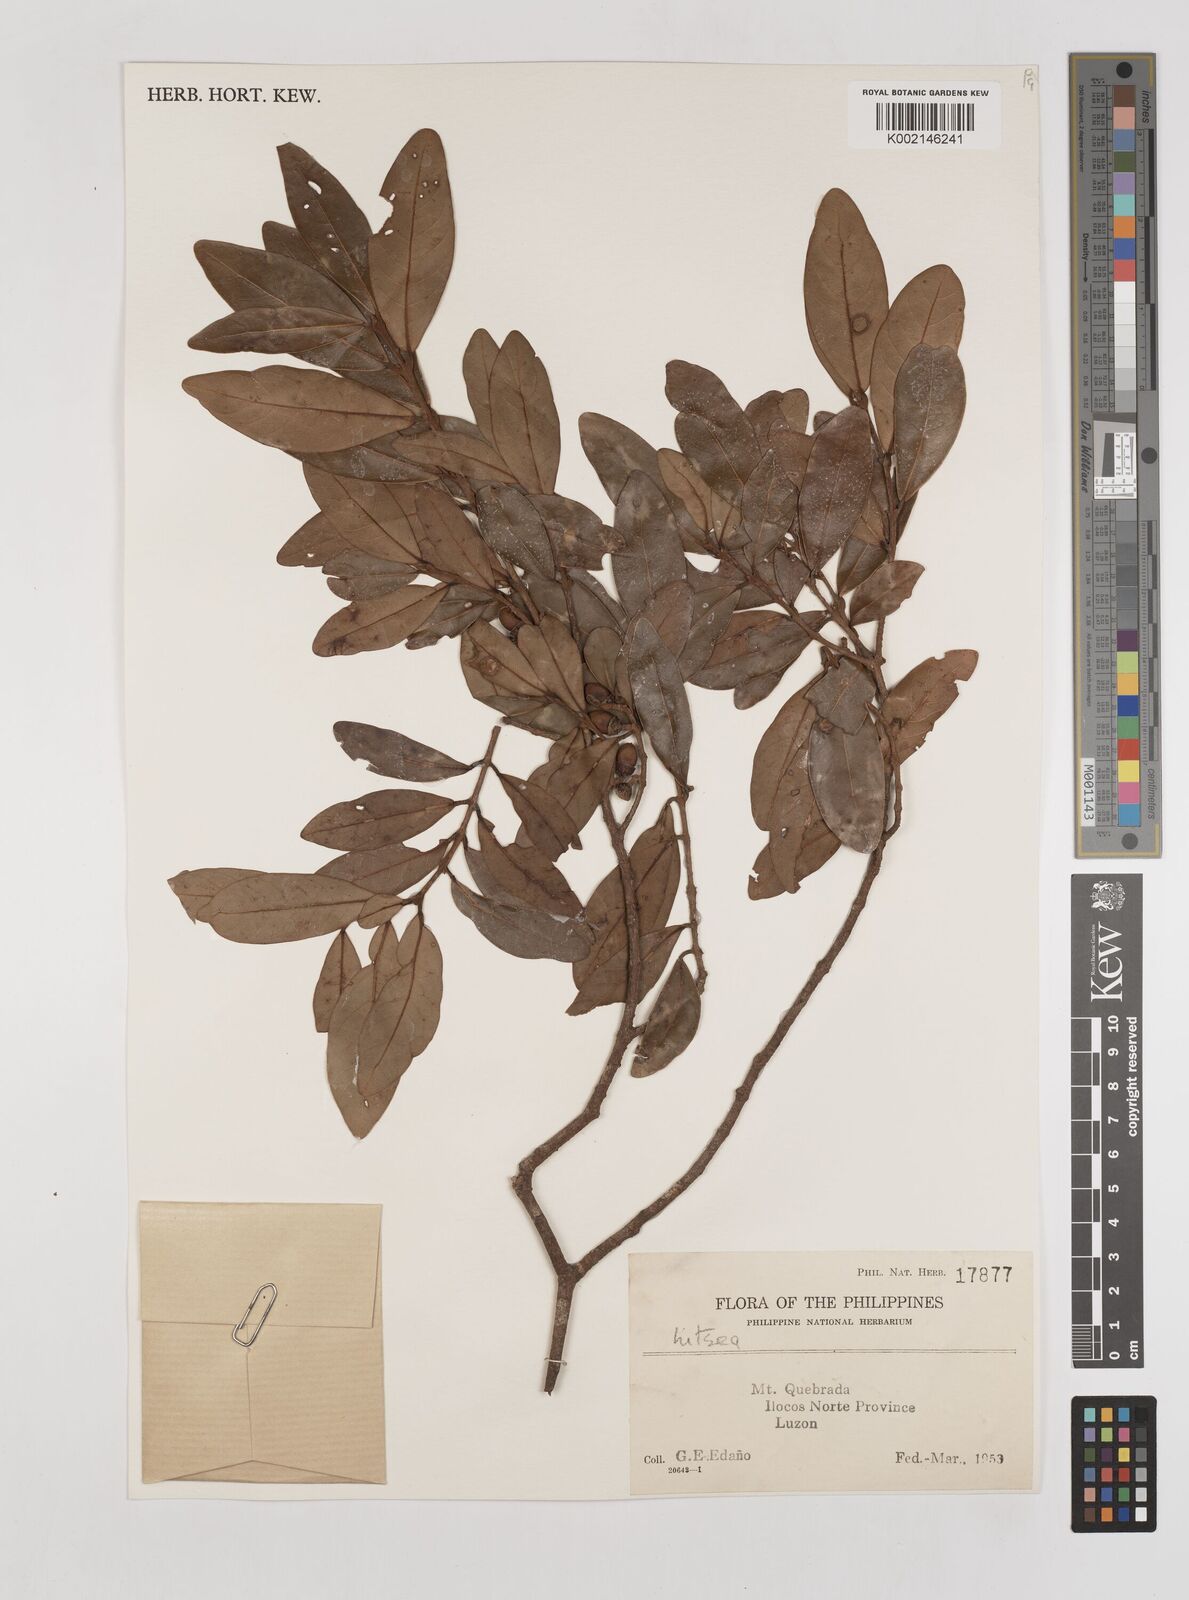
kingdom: Plantae
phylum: Tracheophyta
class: Magnoliopsida
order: Laurales
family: Lauraceae
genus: Litsea
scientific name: Litsea
